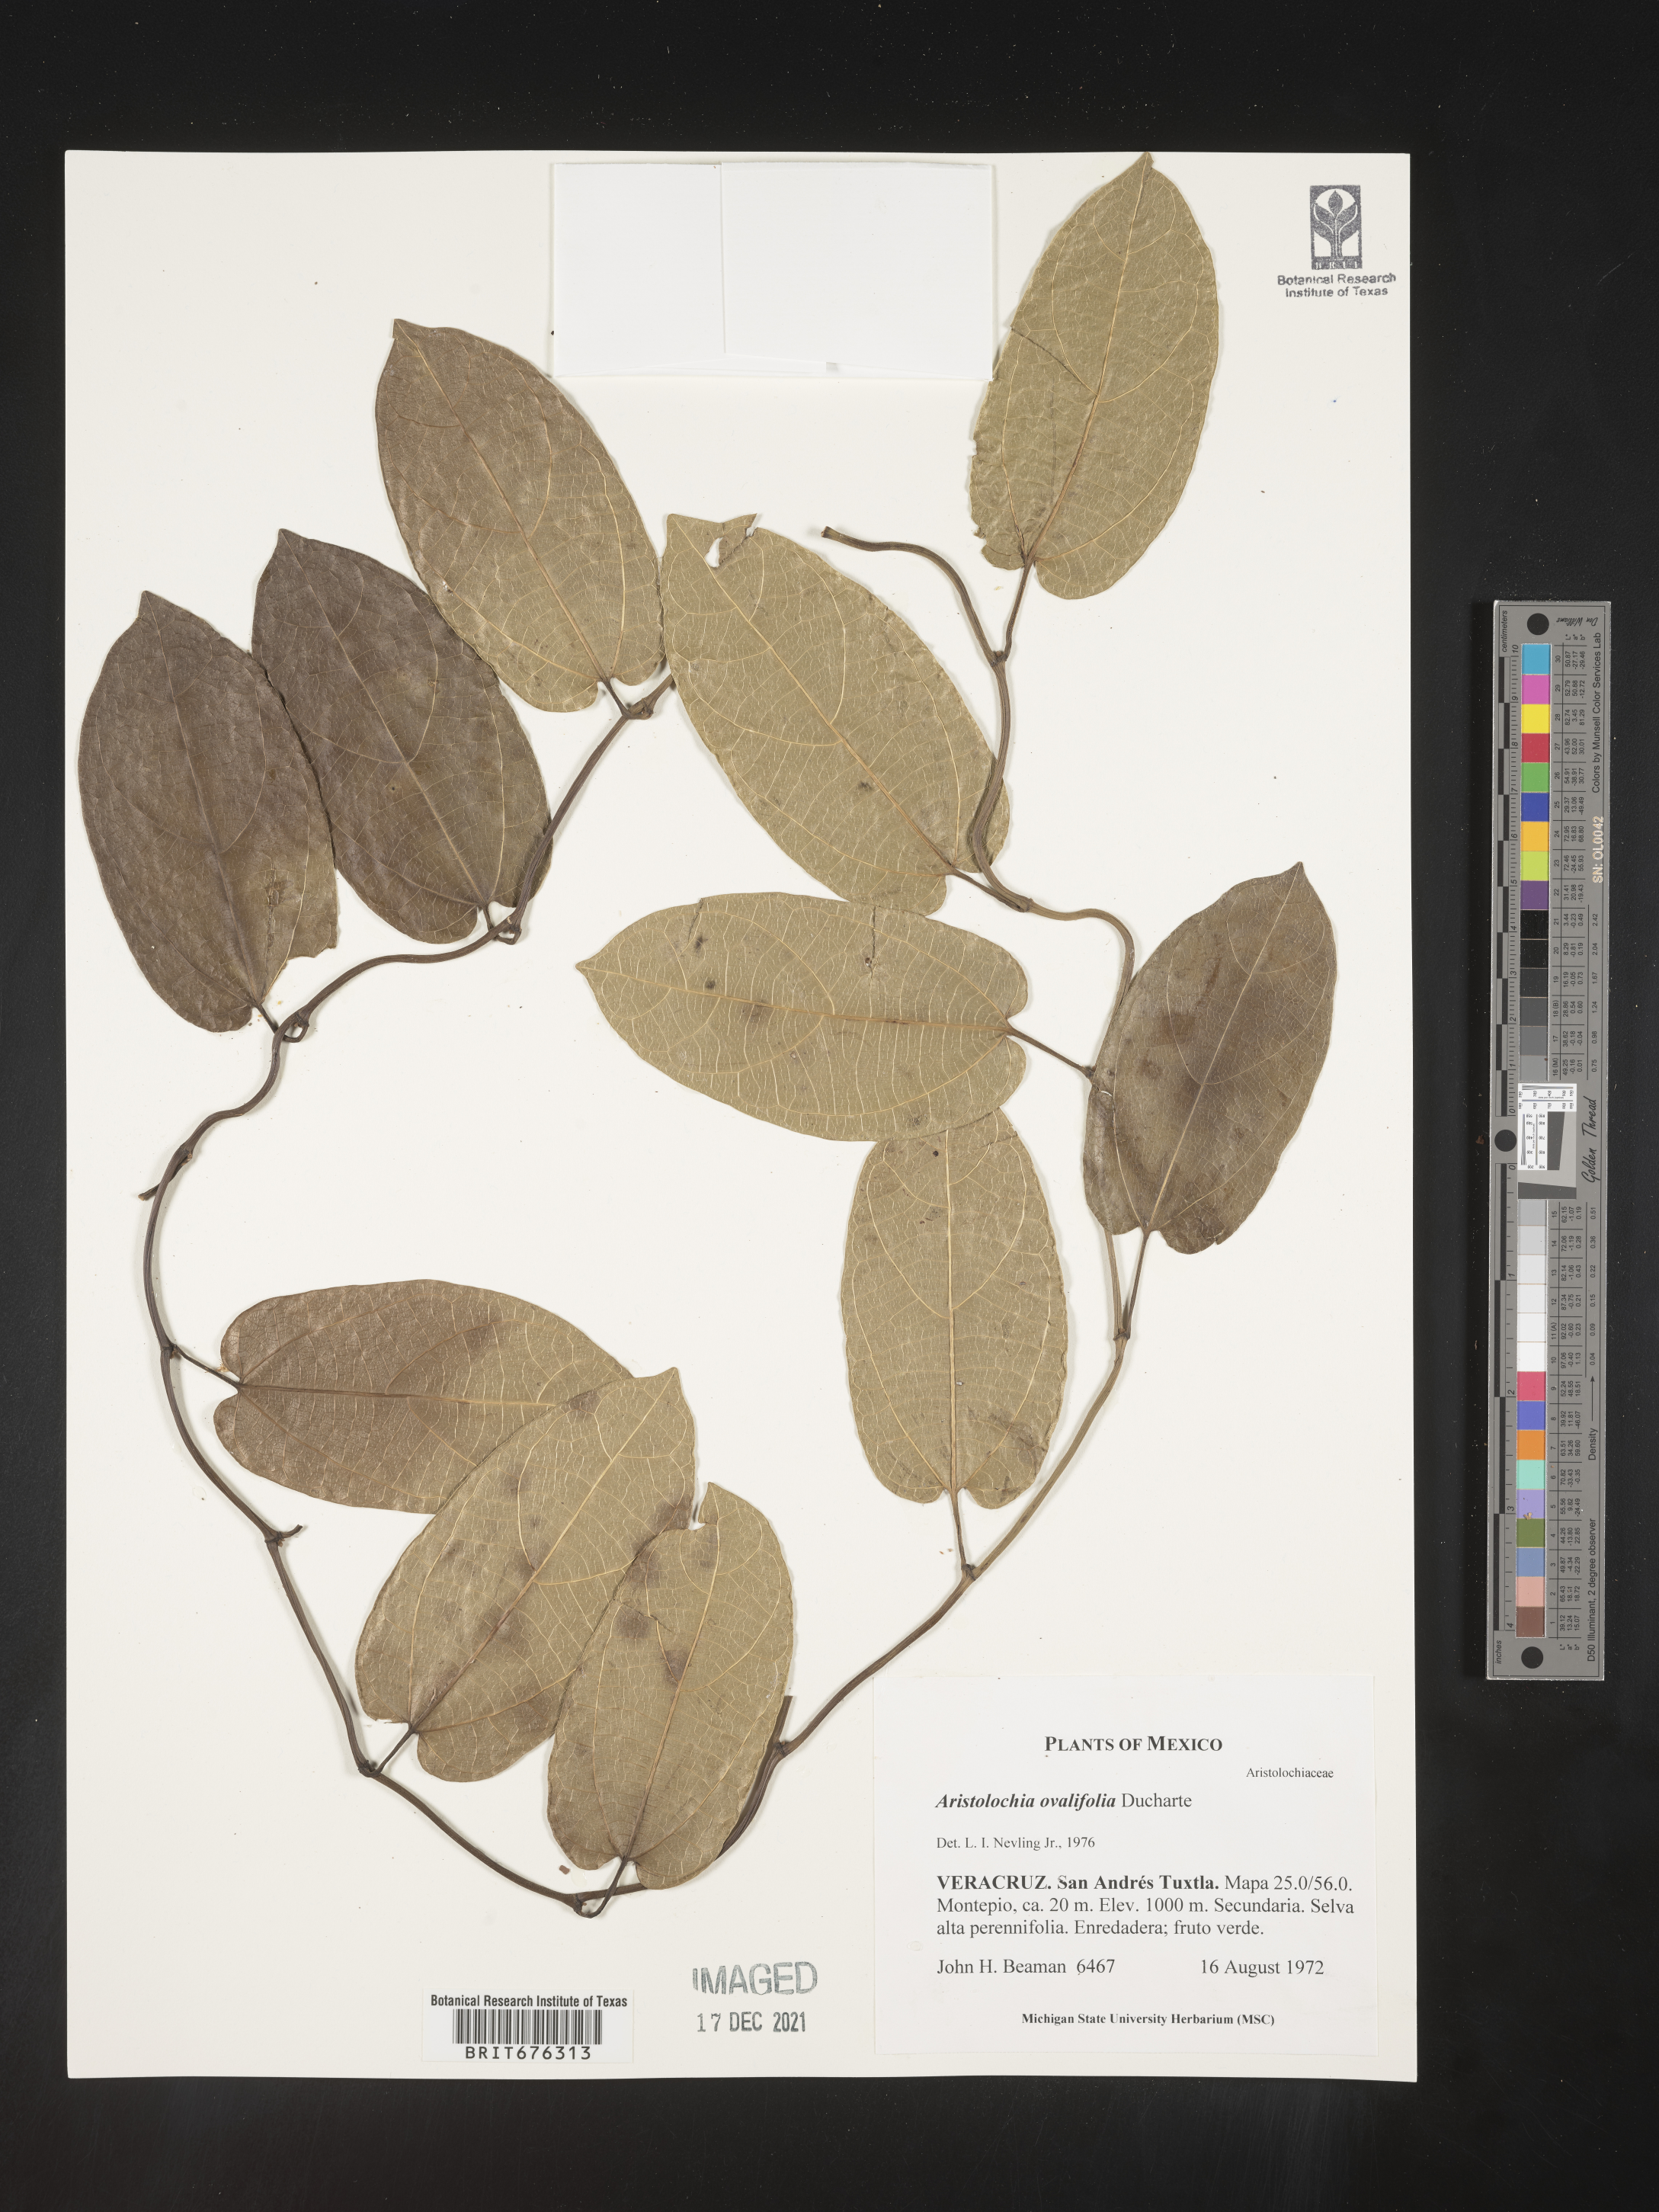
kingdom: Plantae
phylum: Tracheophyta
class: Magnoliopsida
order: Piperales
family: Aristolochiaceae
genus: Aristolochia
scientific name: Aristolochia
